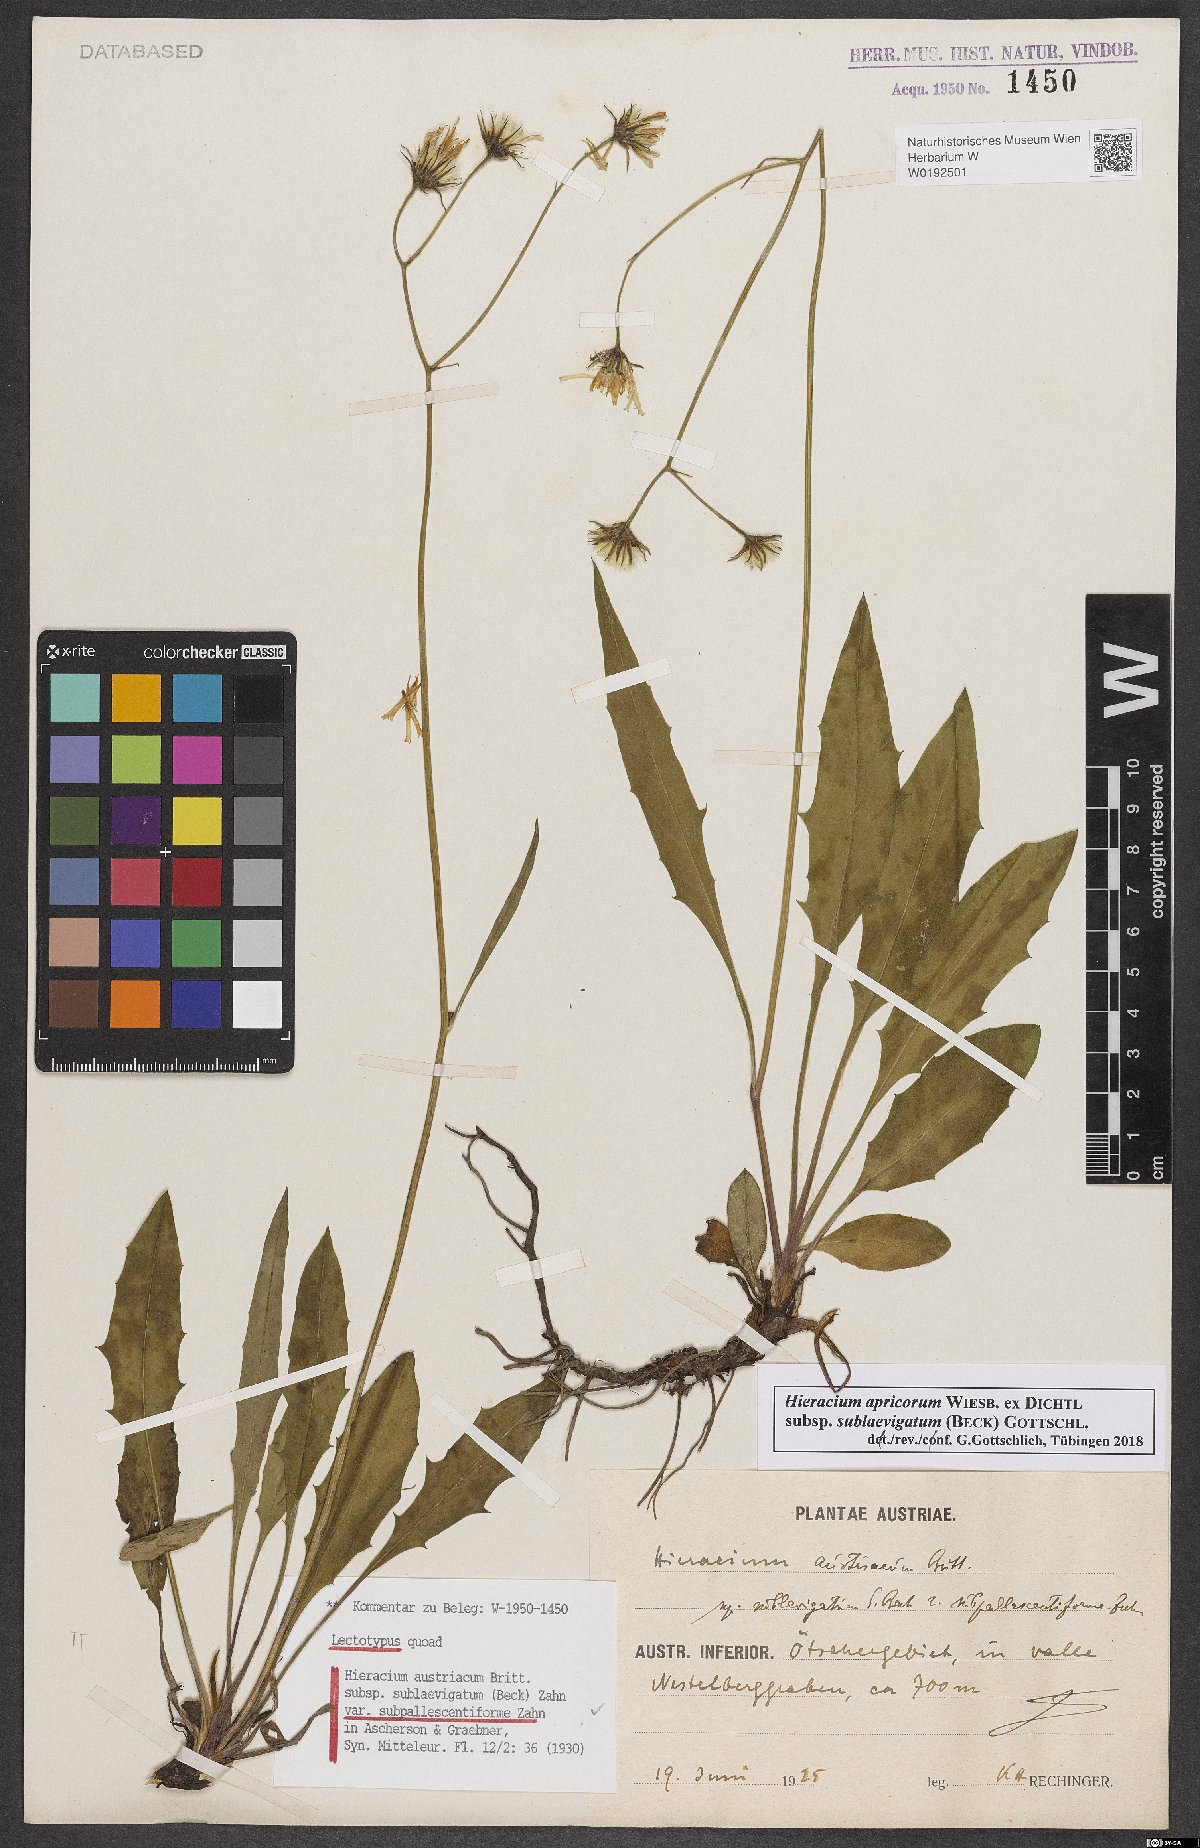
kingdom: Plantae
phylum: Tracheophyta
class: Magnoliopsida
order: Asterales
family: Asteraceae
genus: Hieracium
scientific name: Hieracium austriacum
